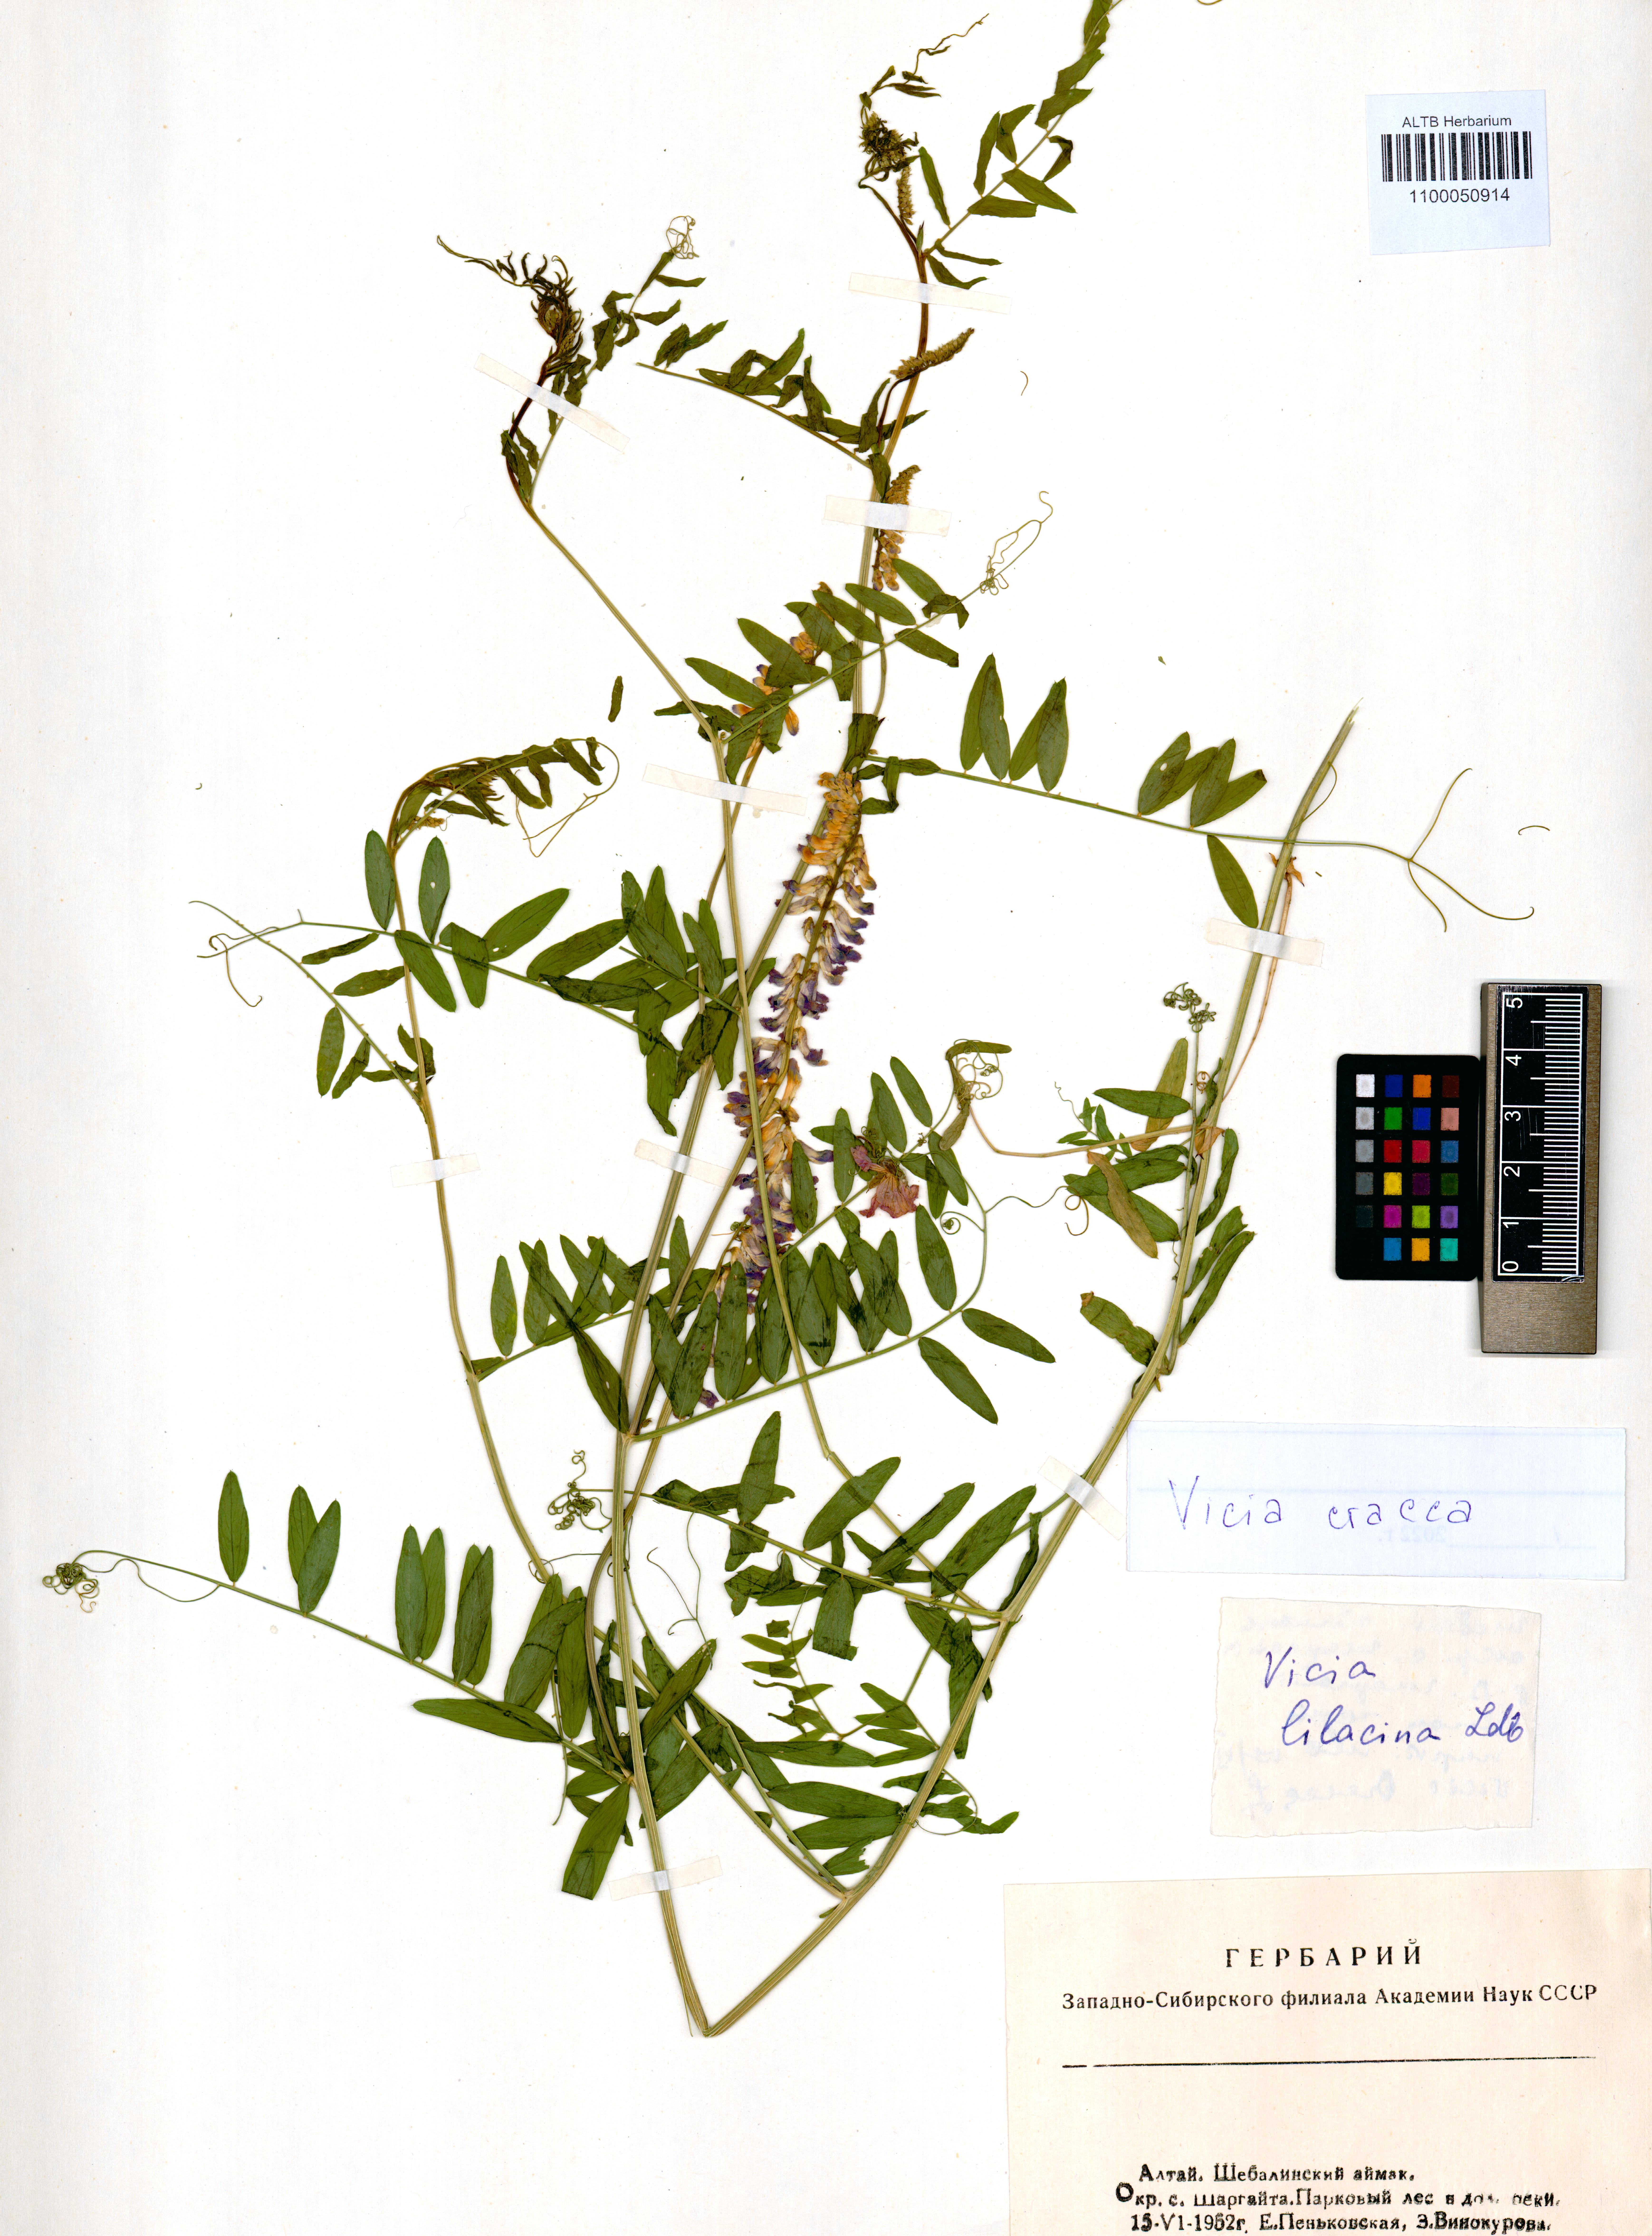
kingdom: Plantae
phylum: Tracheophyta
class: Magnoliopsida
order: Fabales
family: Fabaceae
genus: Vicia
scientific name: Vicia cracca
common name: Bird vetch
